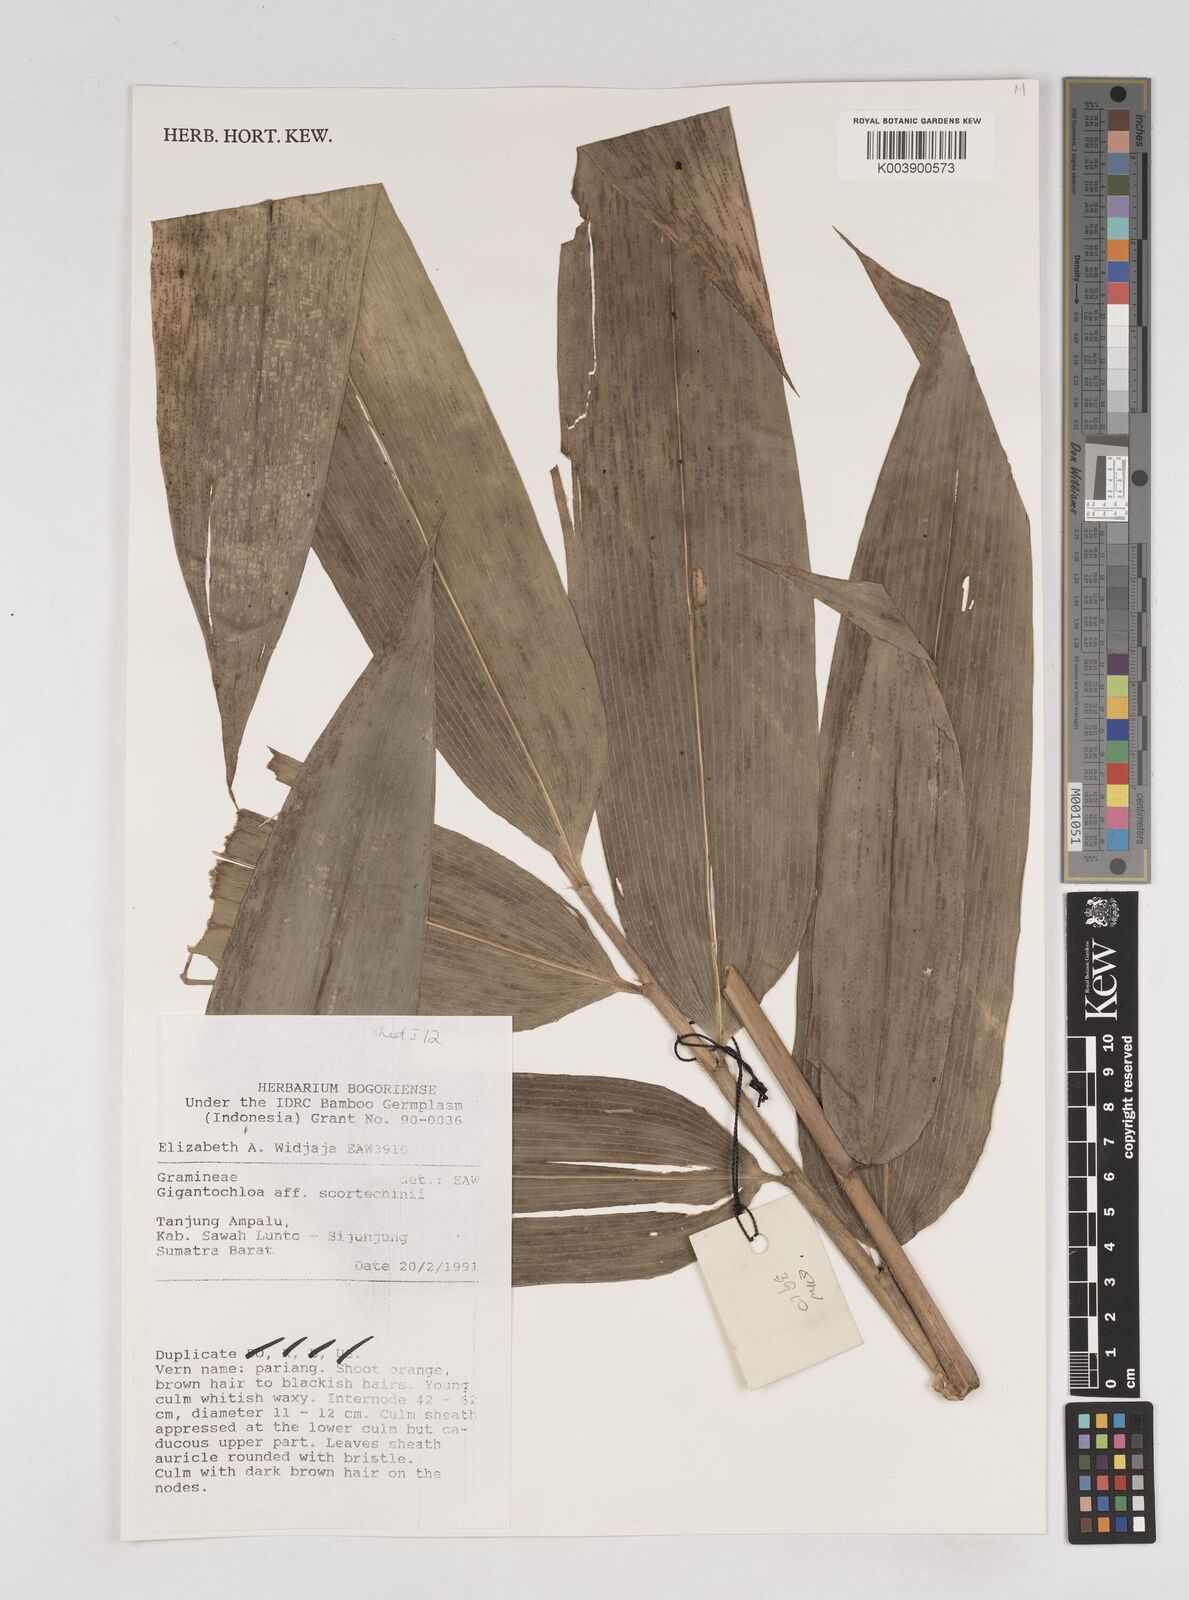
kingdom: Plantae
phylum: Tracheophyta
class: Liliopsida
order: Poales
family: Poaceae
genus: Gigantochloa
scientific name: Gigantochloa scortechinii
